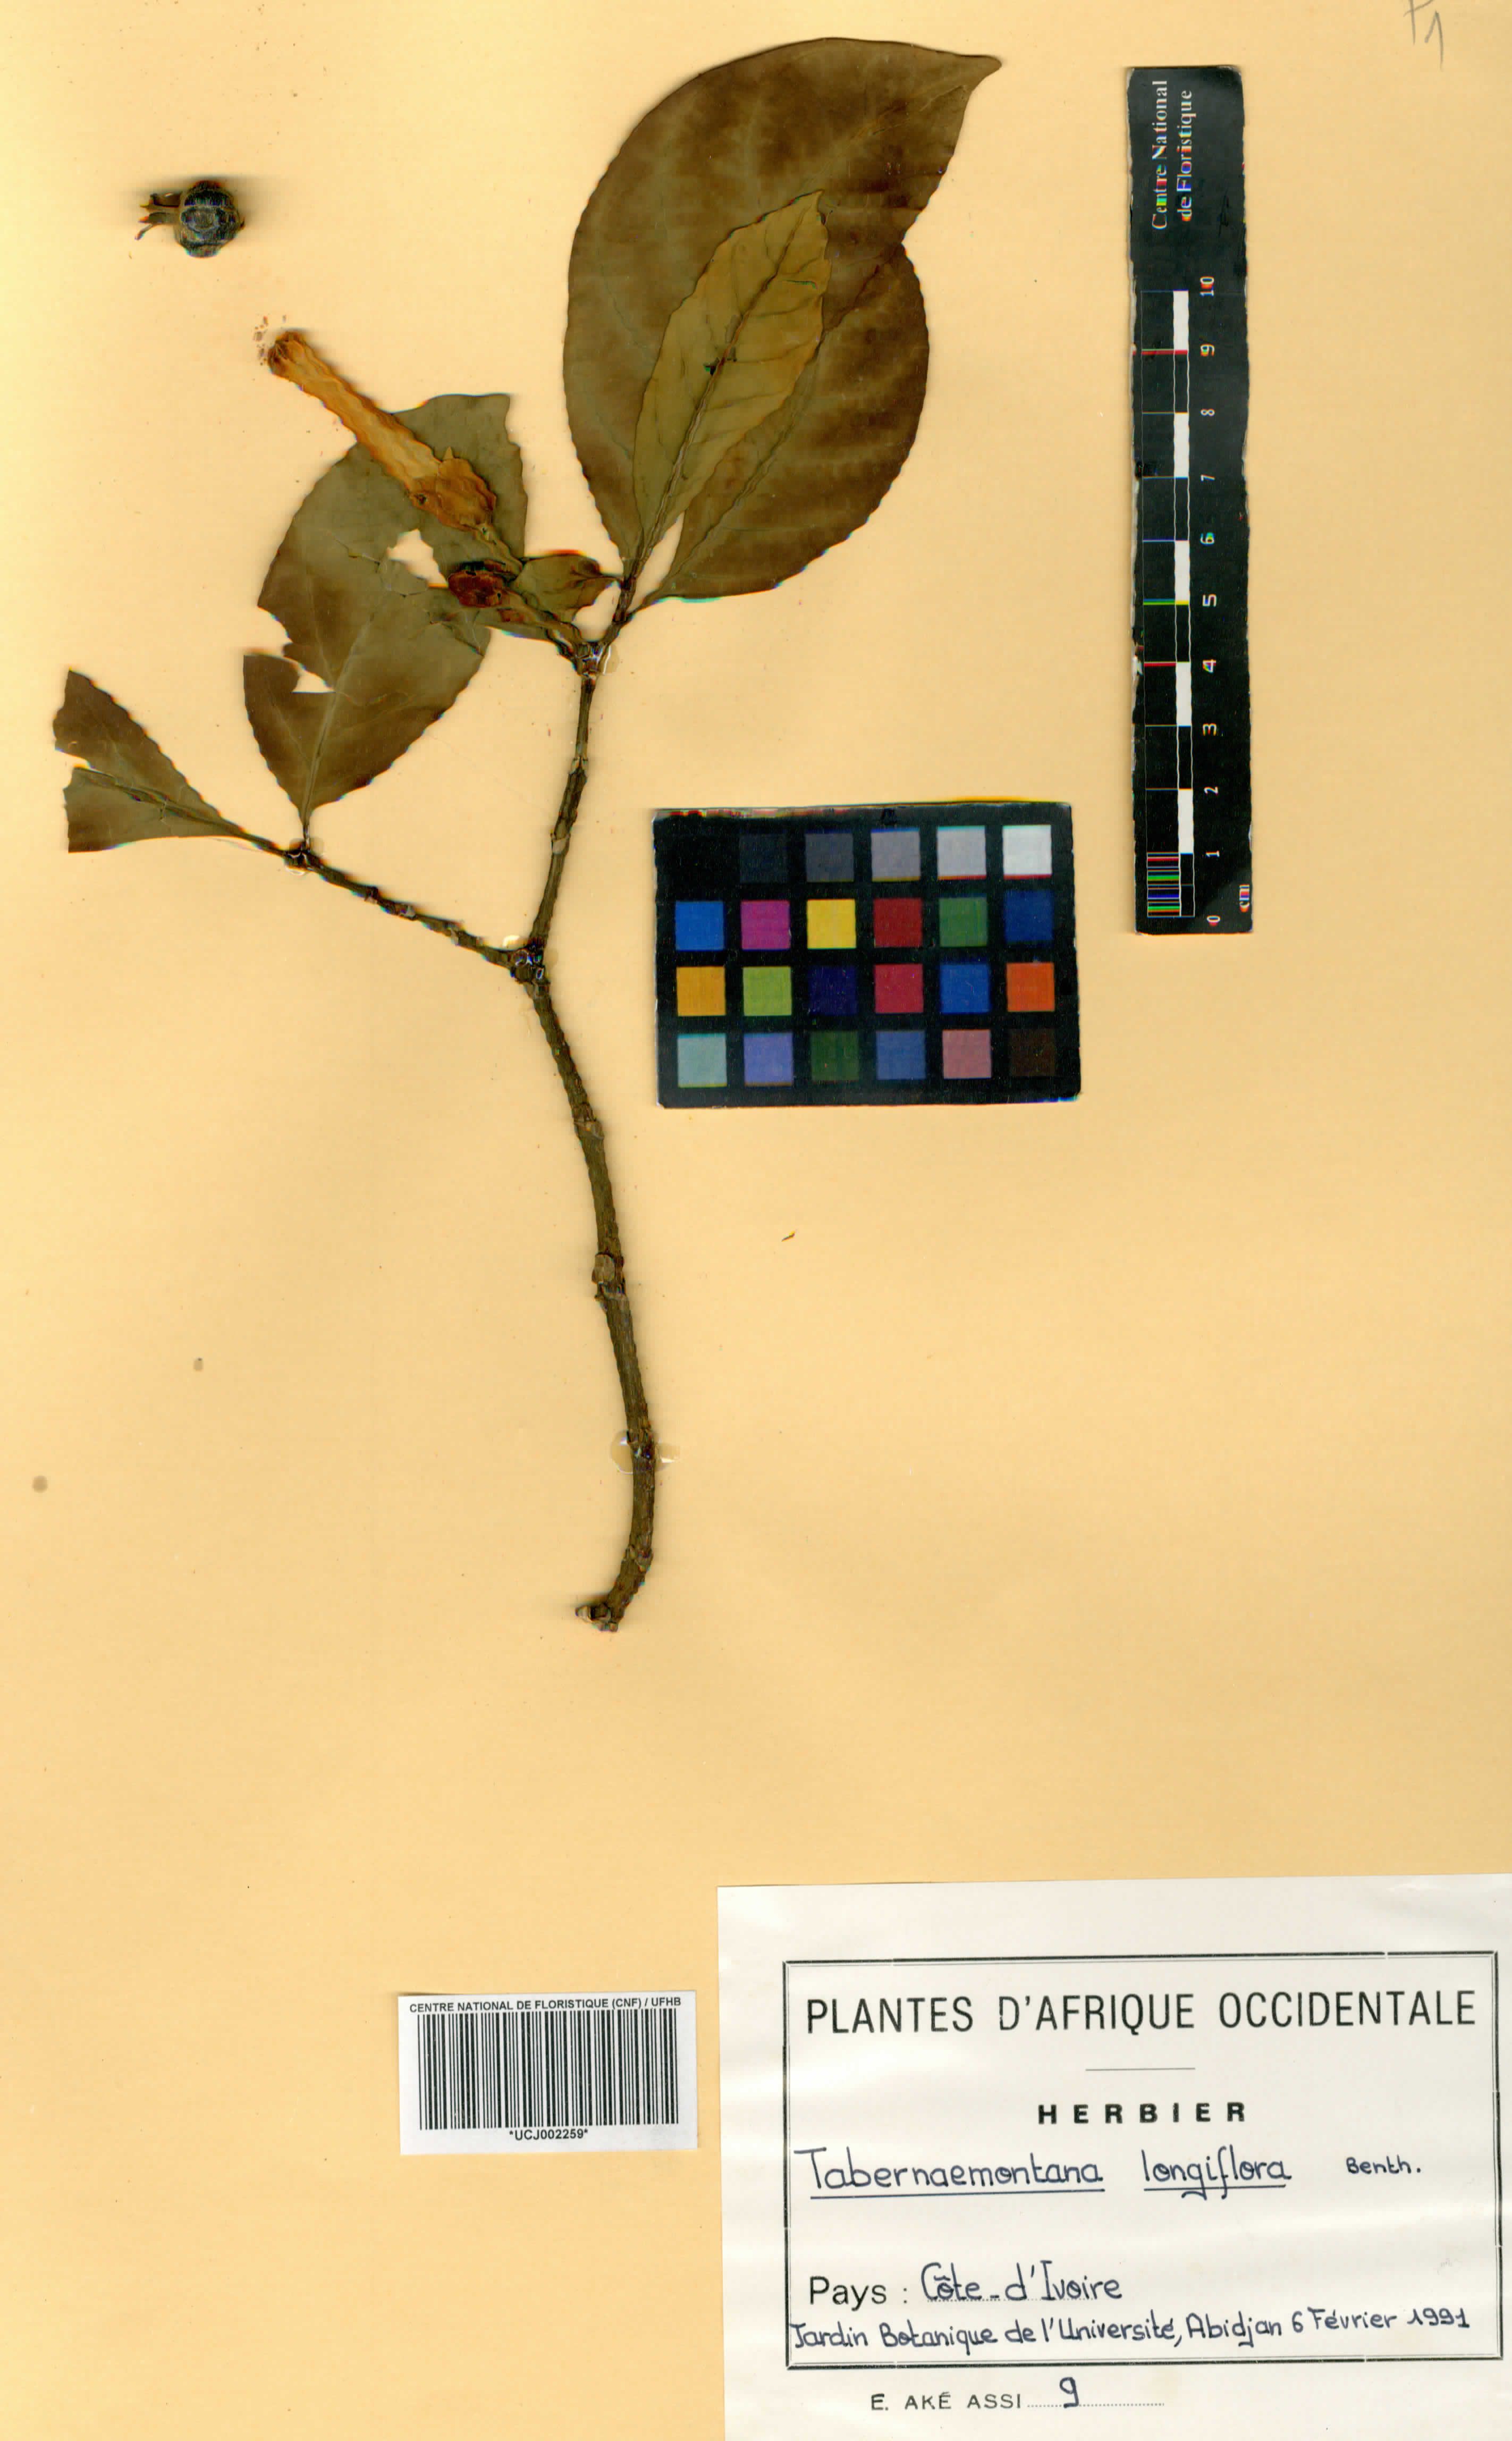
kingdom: Plantae
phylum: Tracheophyta
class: Magnoliopsida
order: Gentianales
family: Apocynaceae
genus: Tabernaemontana
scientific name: Tabernaemontana africana
